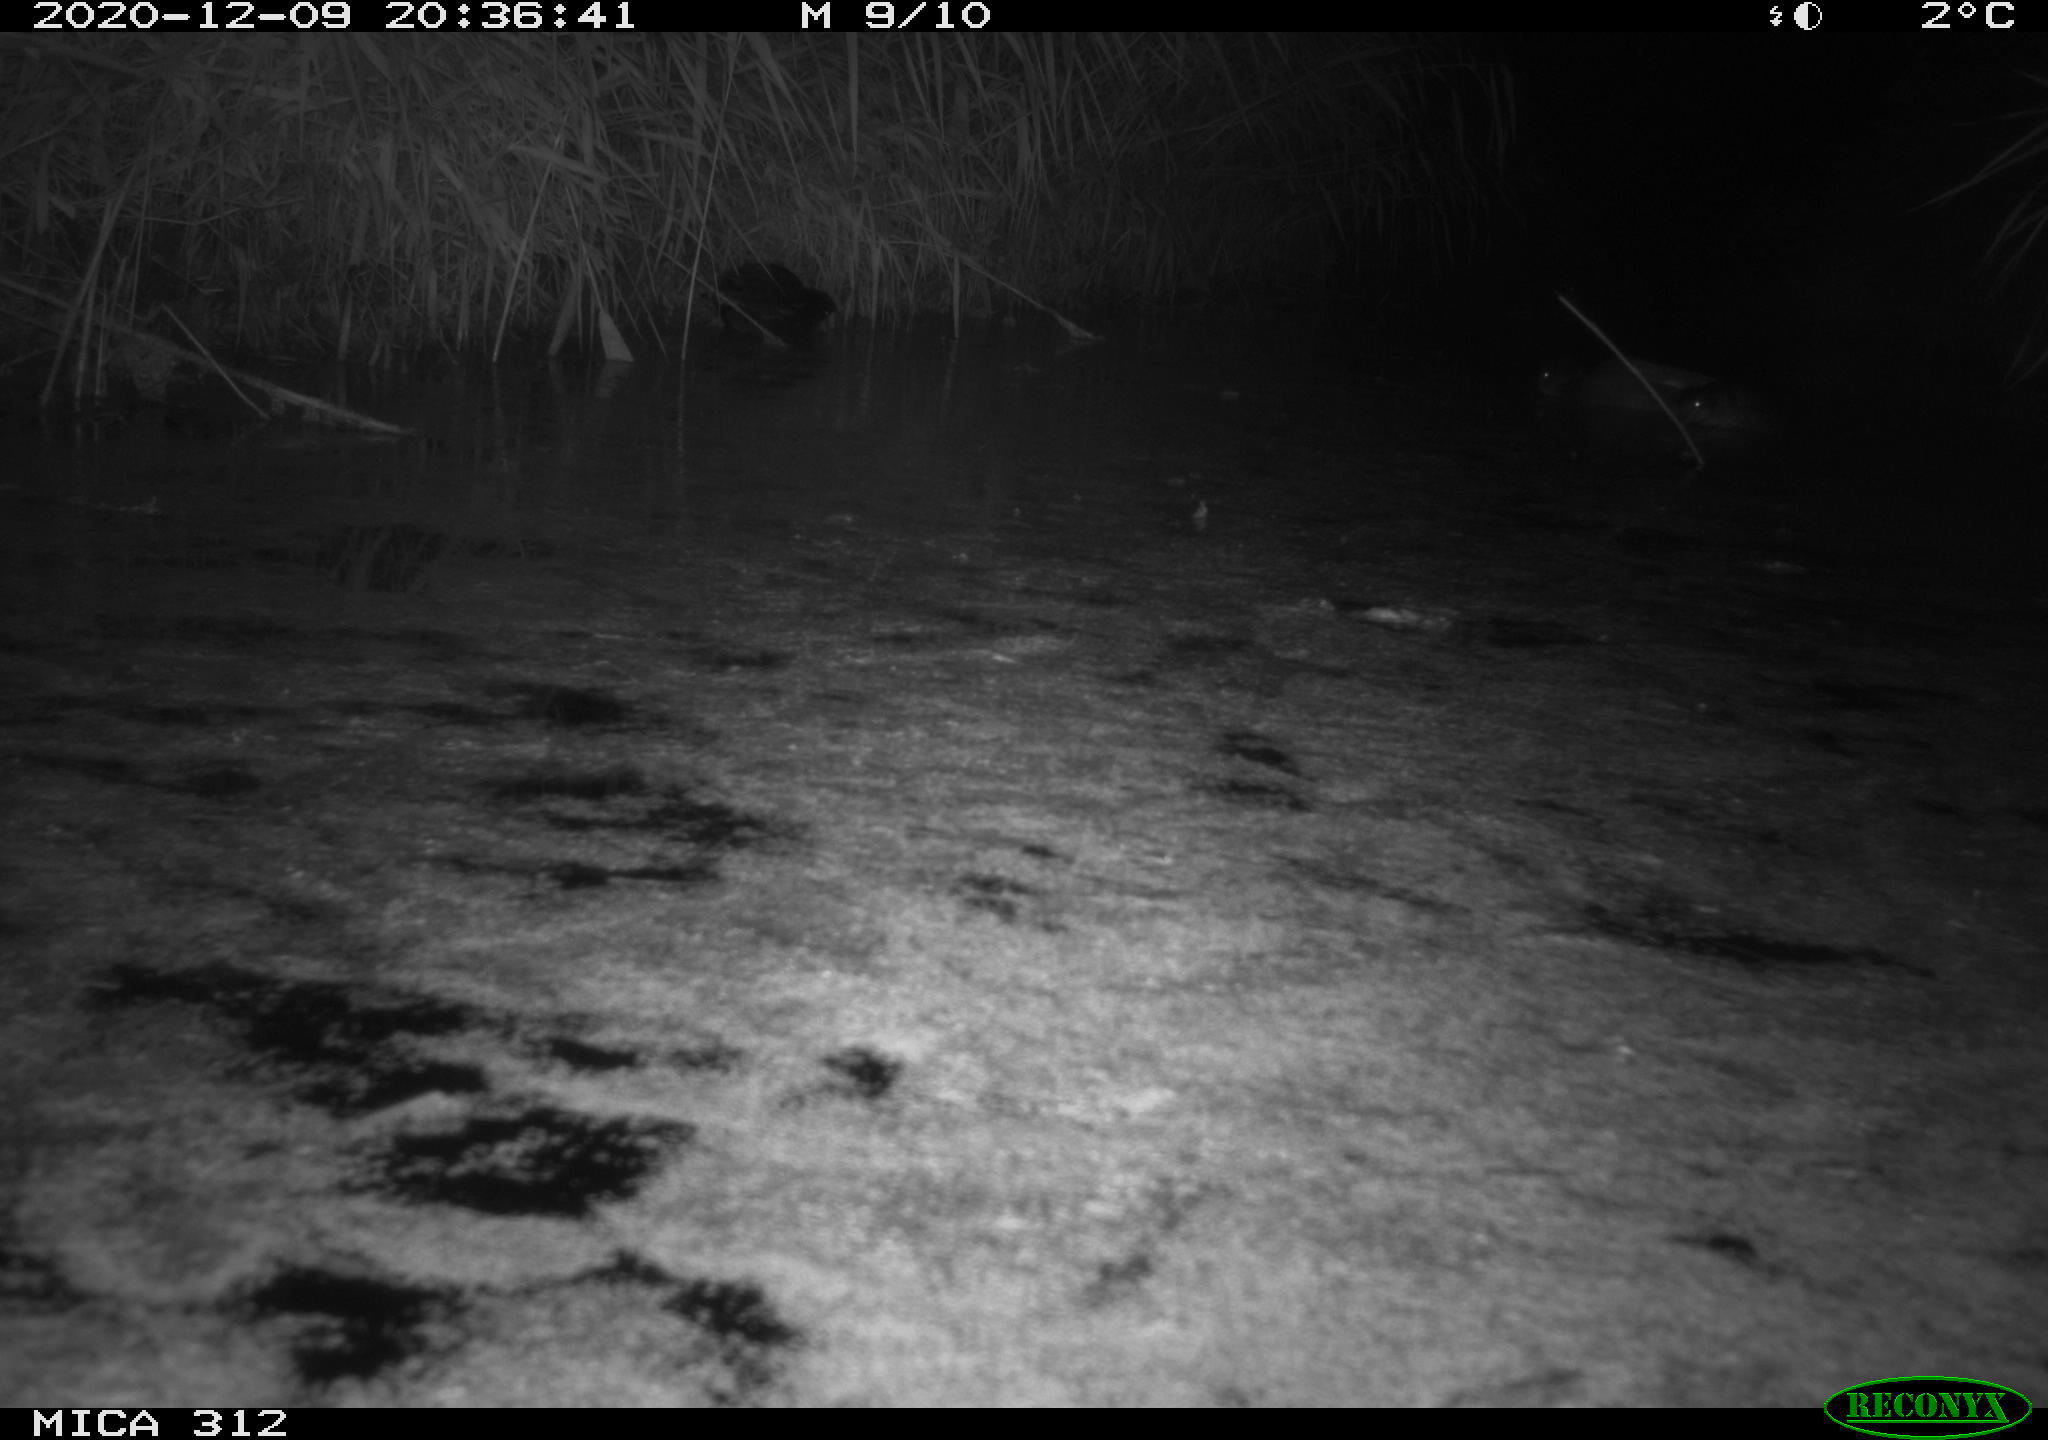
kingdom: Animalia
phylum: Chordata
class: Aves
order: Anseriformes
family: Anatidae
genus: Mareca
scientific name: Mareca strepera
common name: Gadwall
